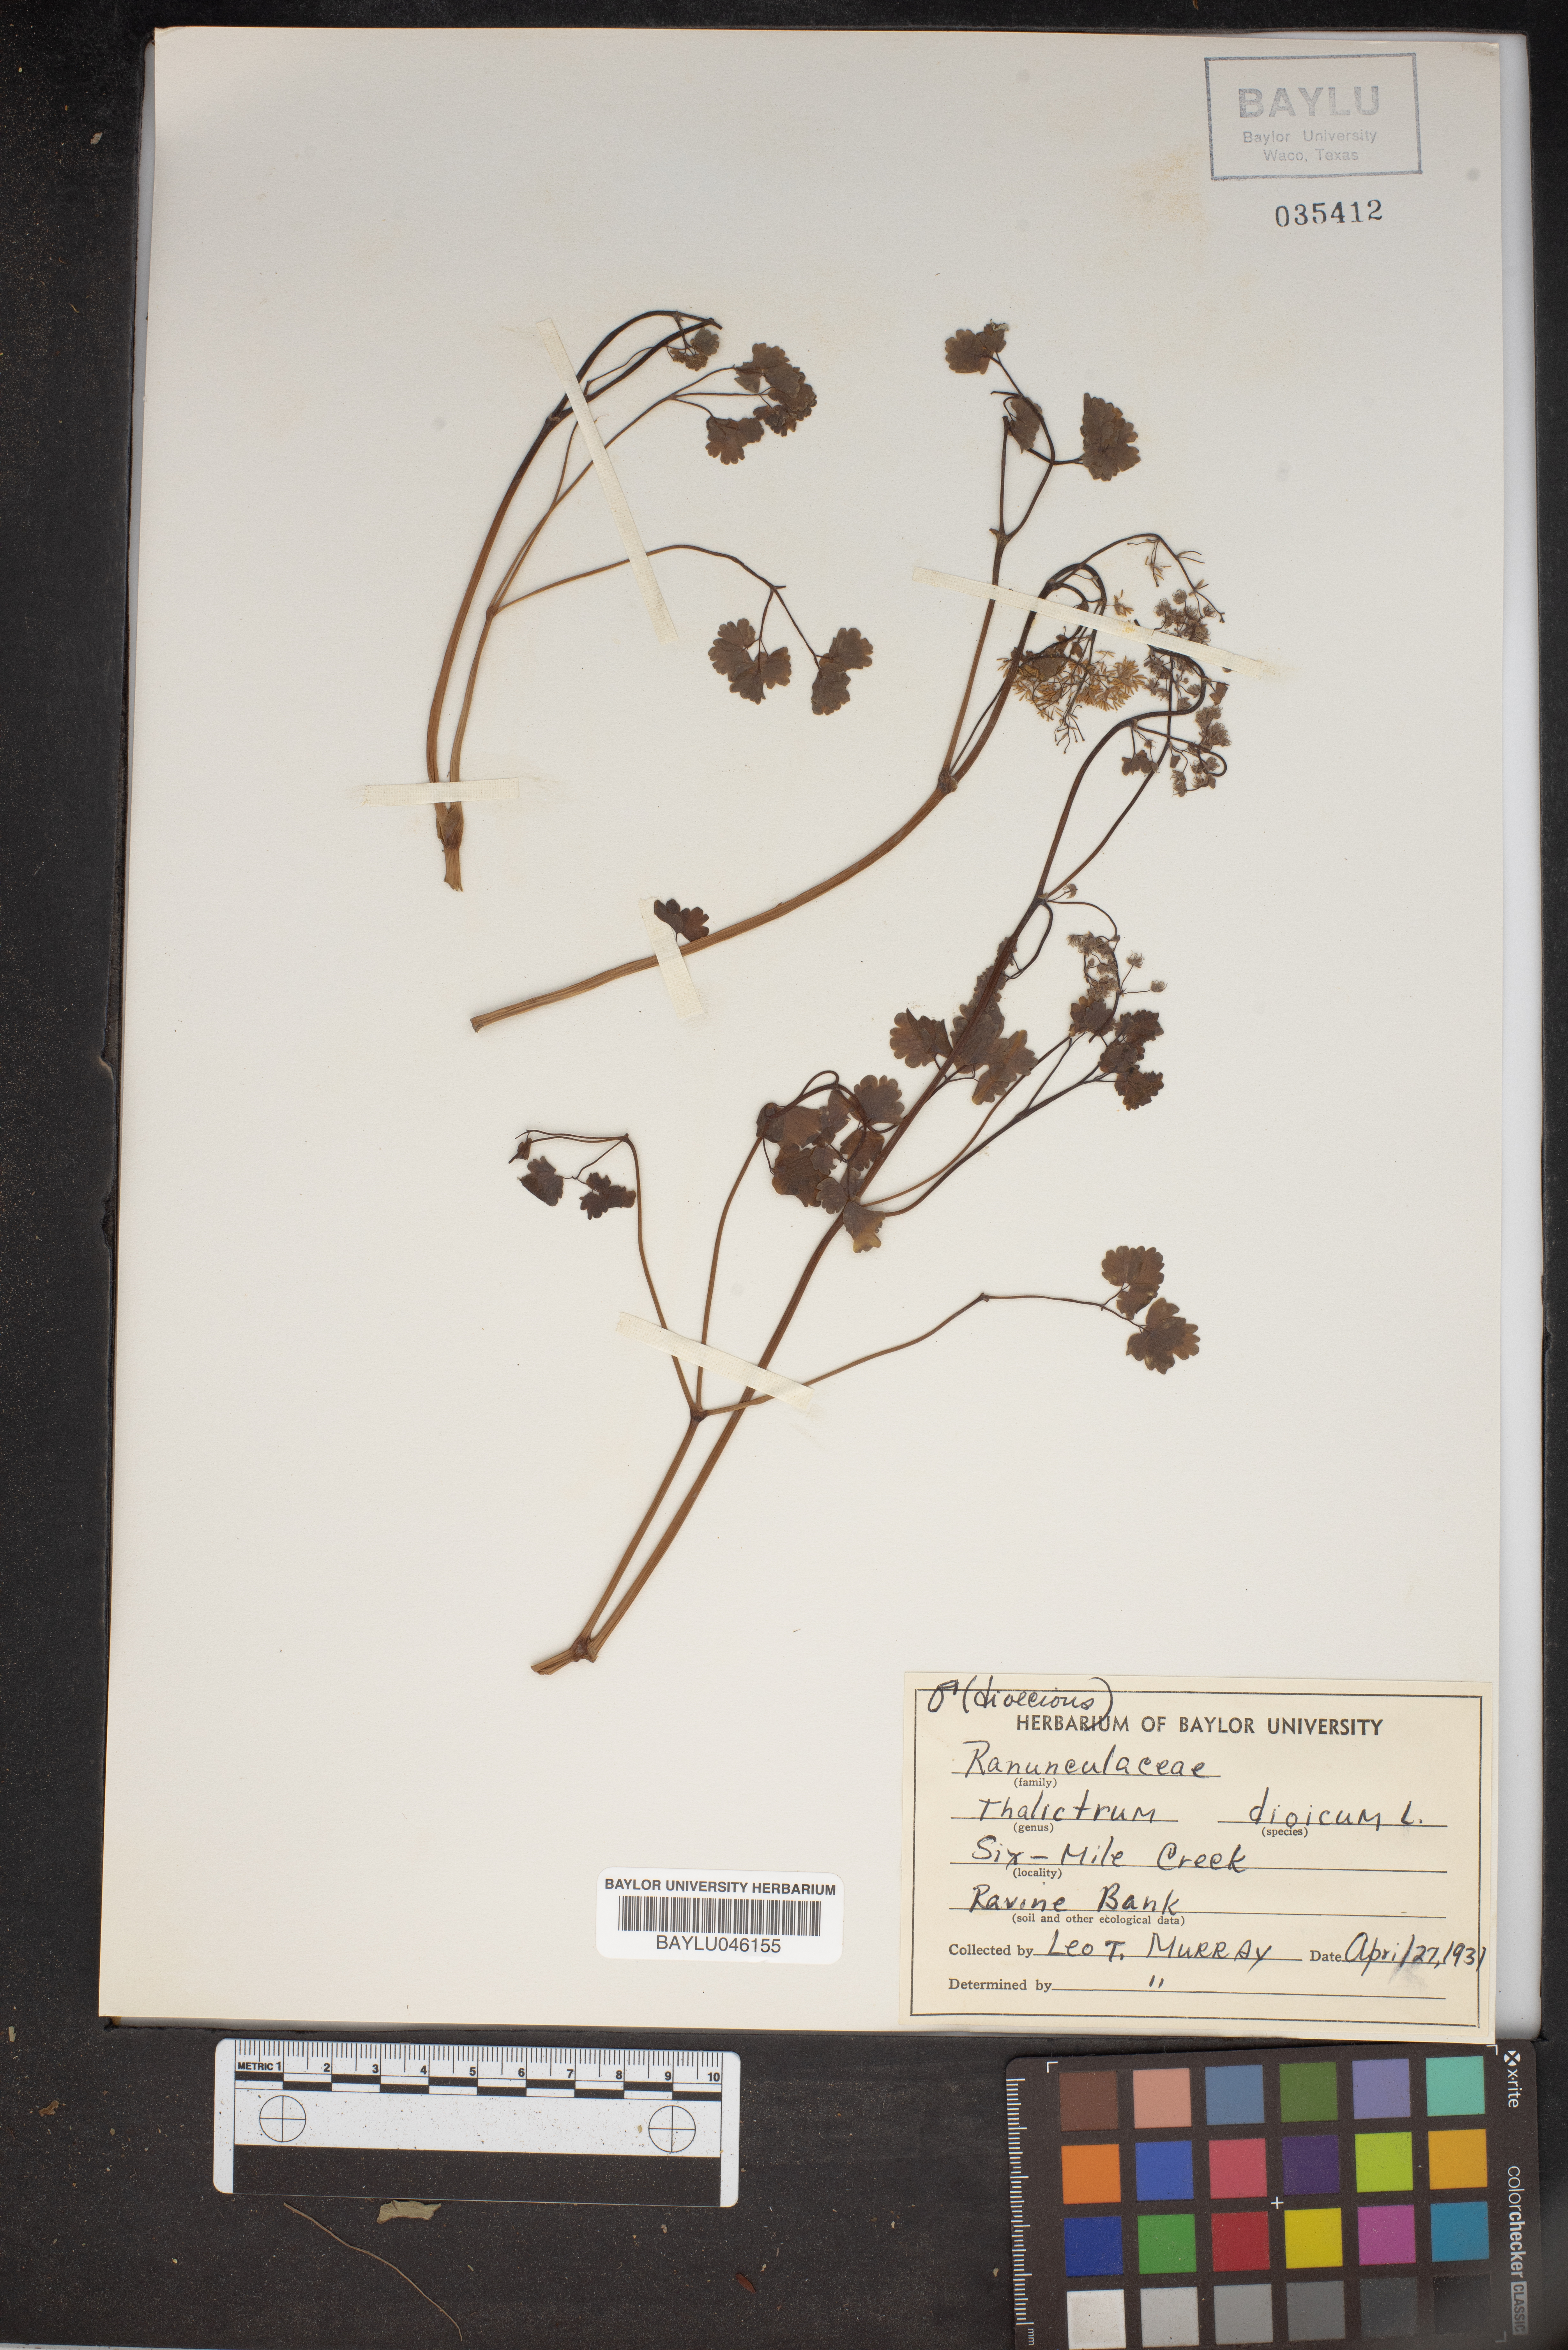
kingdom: Plantae
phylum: Tracheophyta
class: Magnoliopsida
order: Ranunculales
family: Ranunculaceae
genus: Thalictrum
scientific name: Thalictrum dioicum
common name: Early meadow-rue
